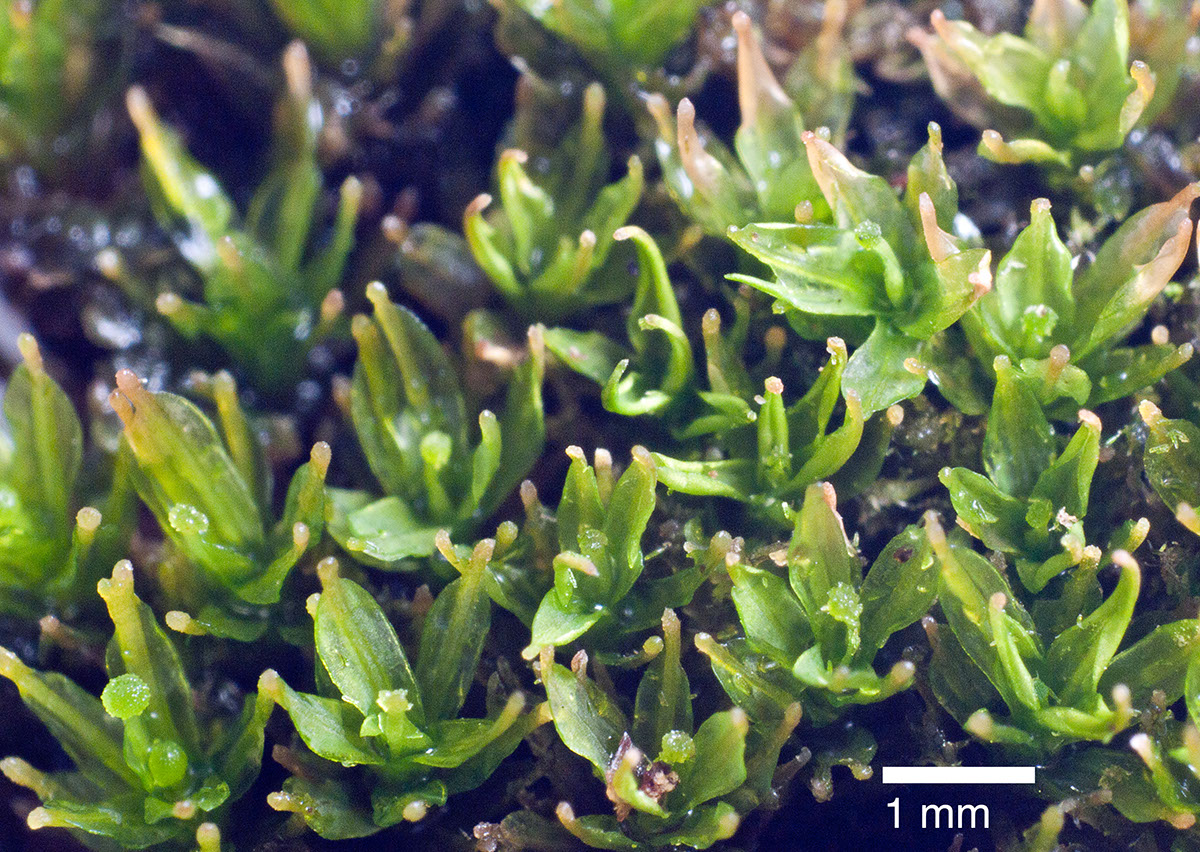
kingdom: Plantae
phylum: Bryophyta
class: Bryopsida
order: Dicranales
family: Calymperaceae
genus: Calymperes
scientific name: Calymperes tenerum
